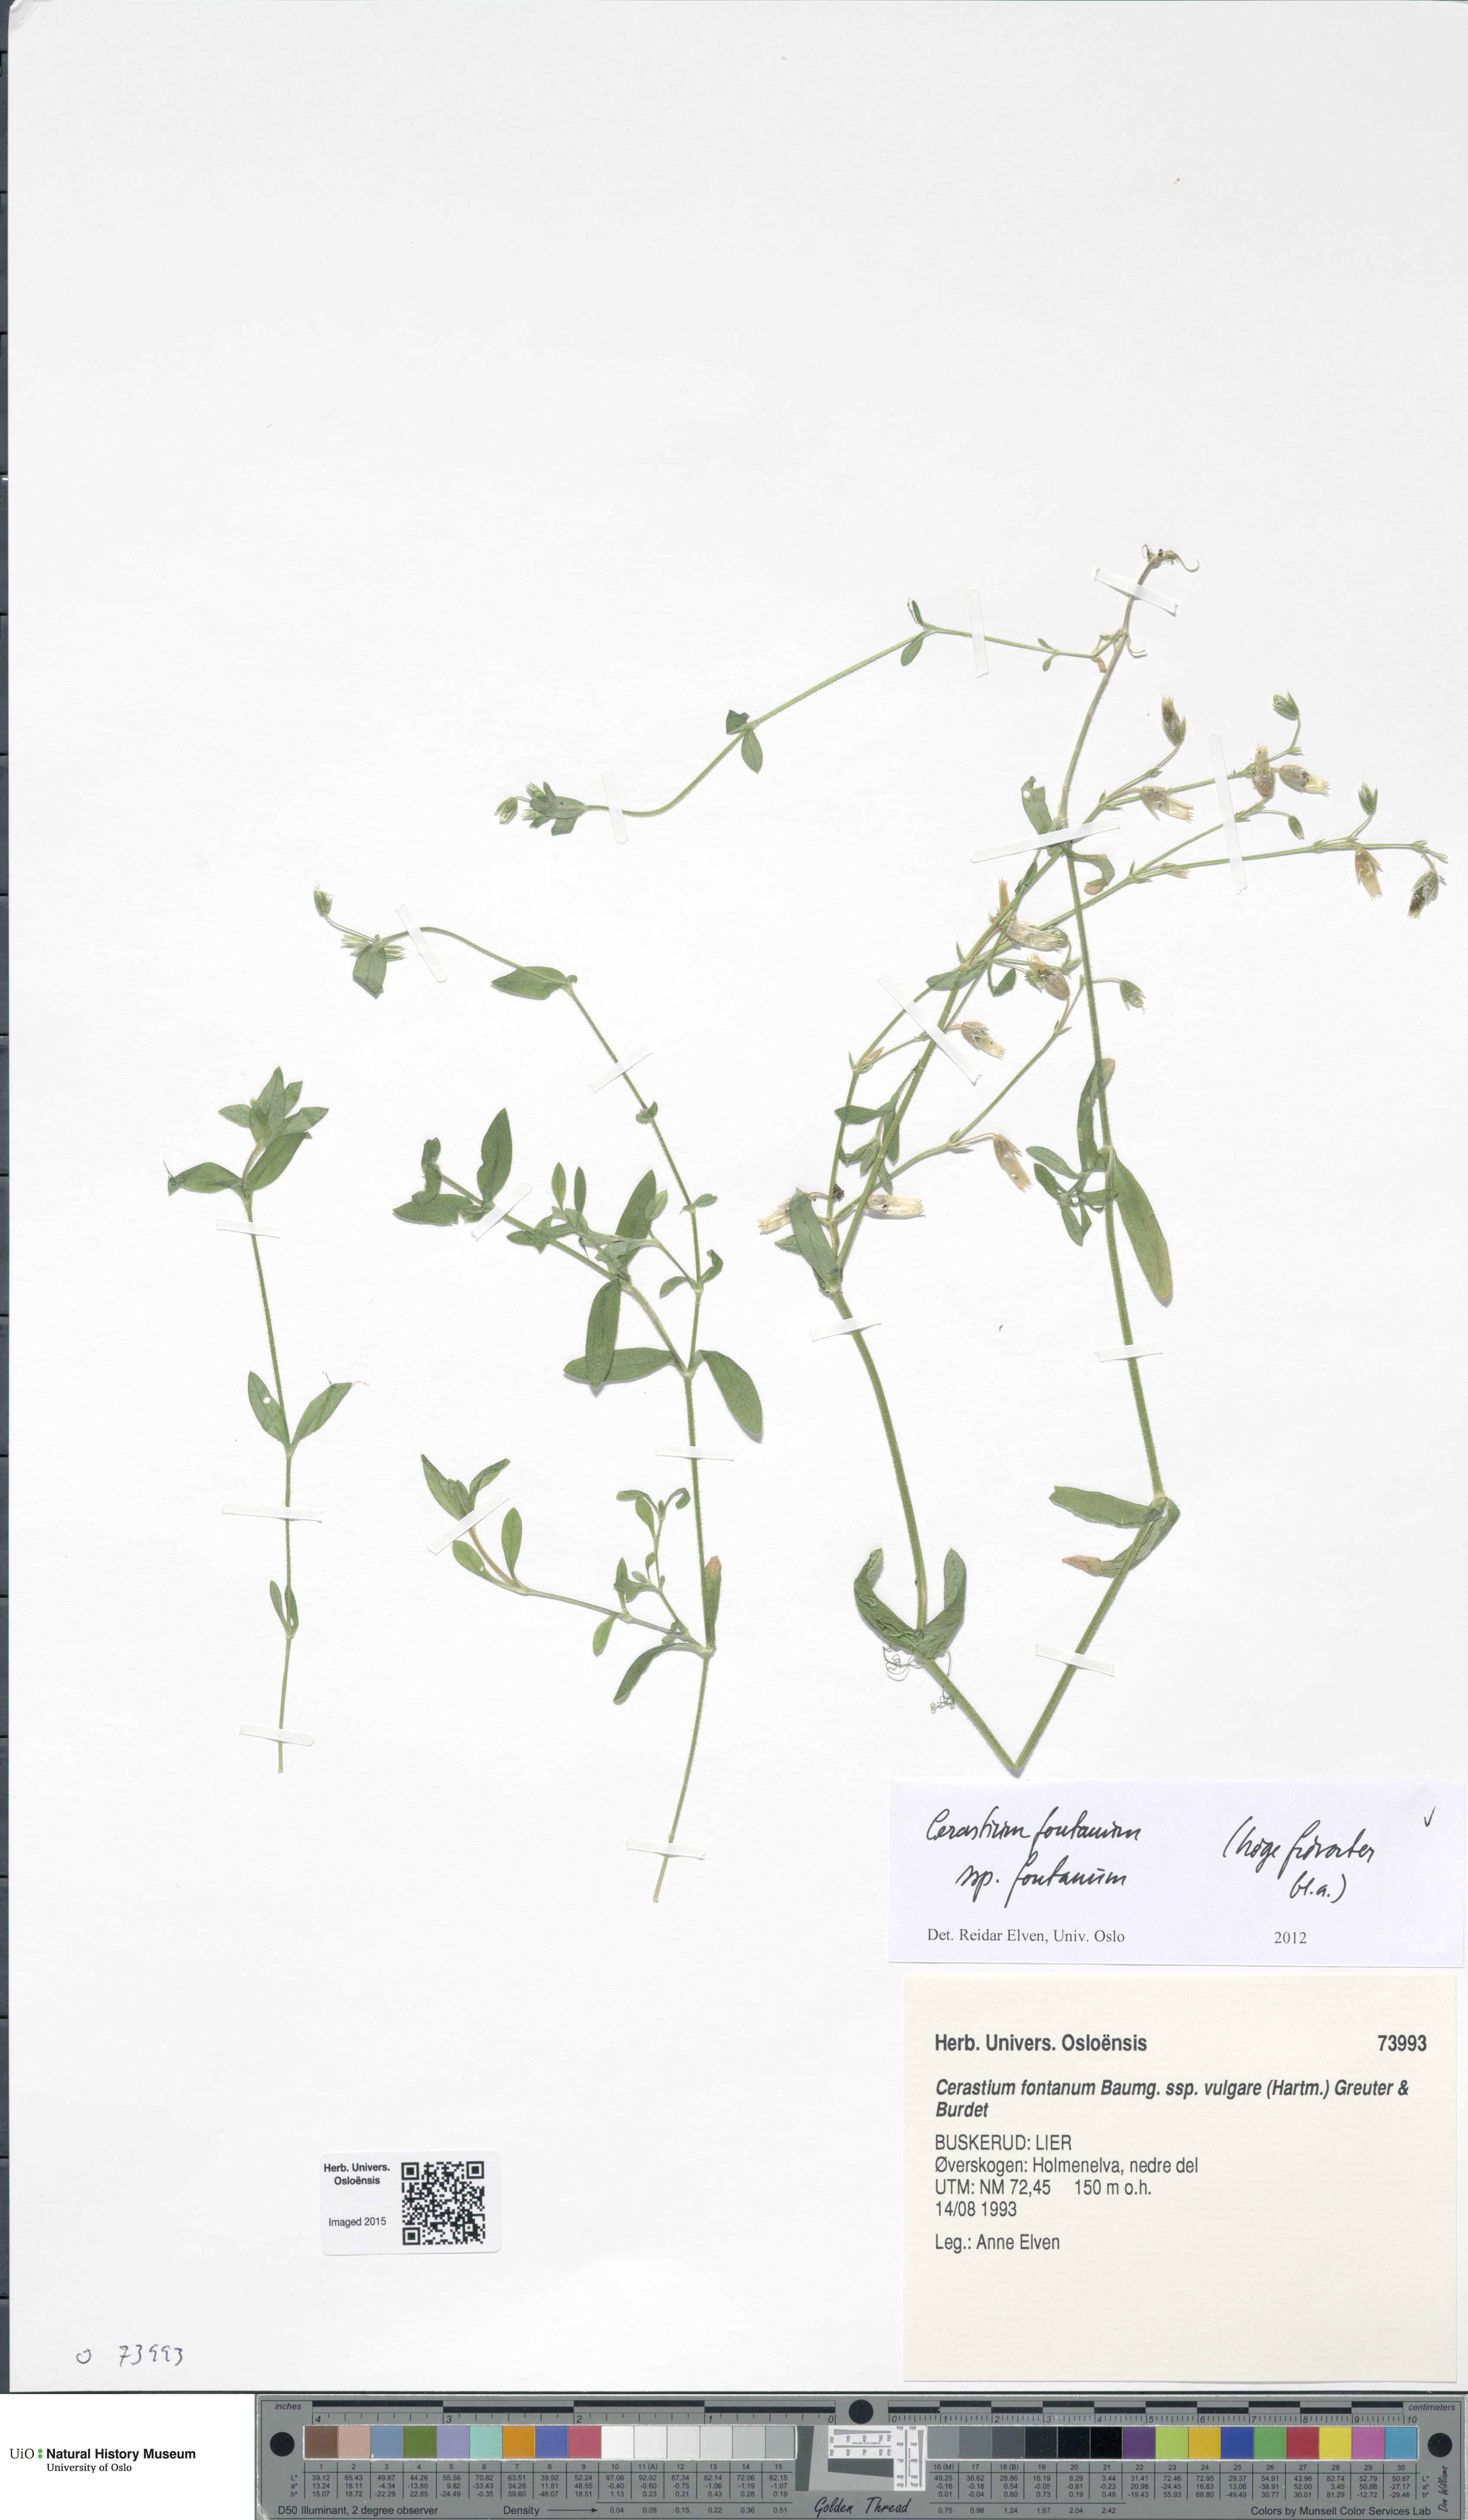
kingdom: Plantae
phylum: Tracheophyta
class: Magnoliopsida
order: Caryophyllales
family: Caryophyllaceae
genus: Cerastium
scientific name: Cerastium fontanum
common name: Common mouse-ear
